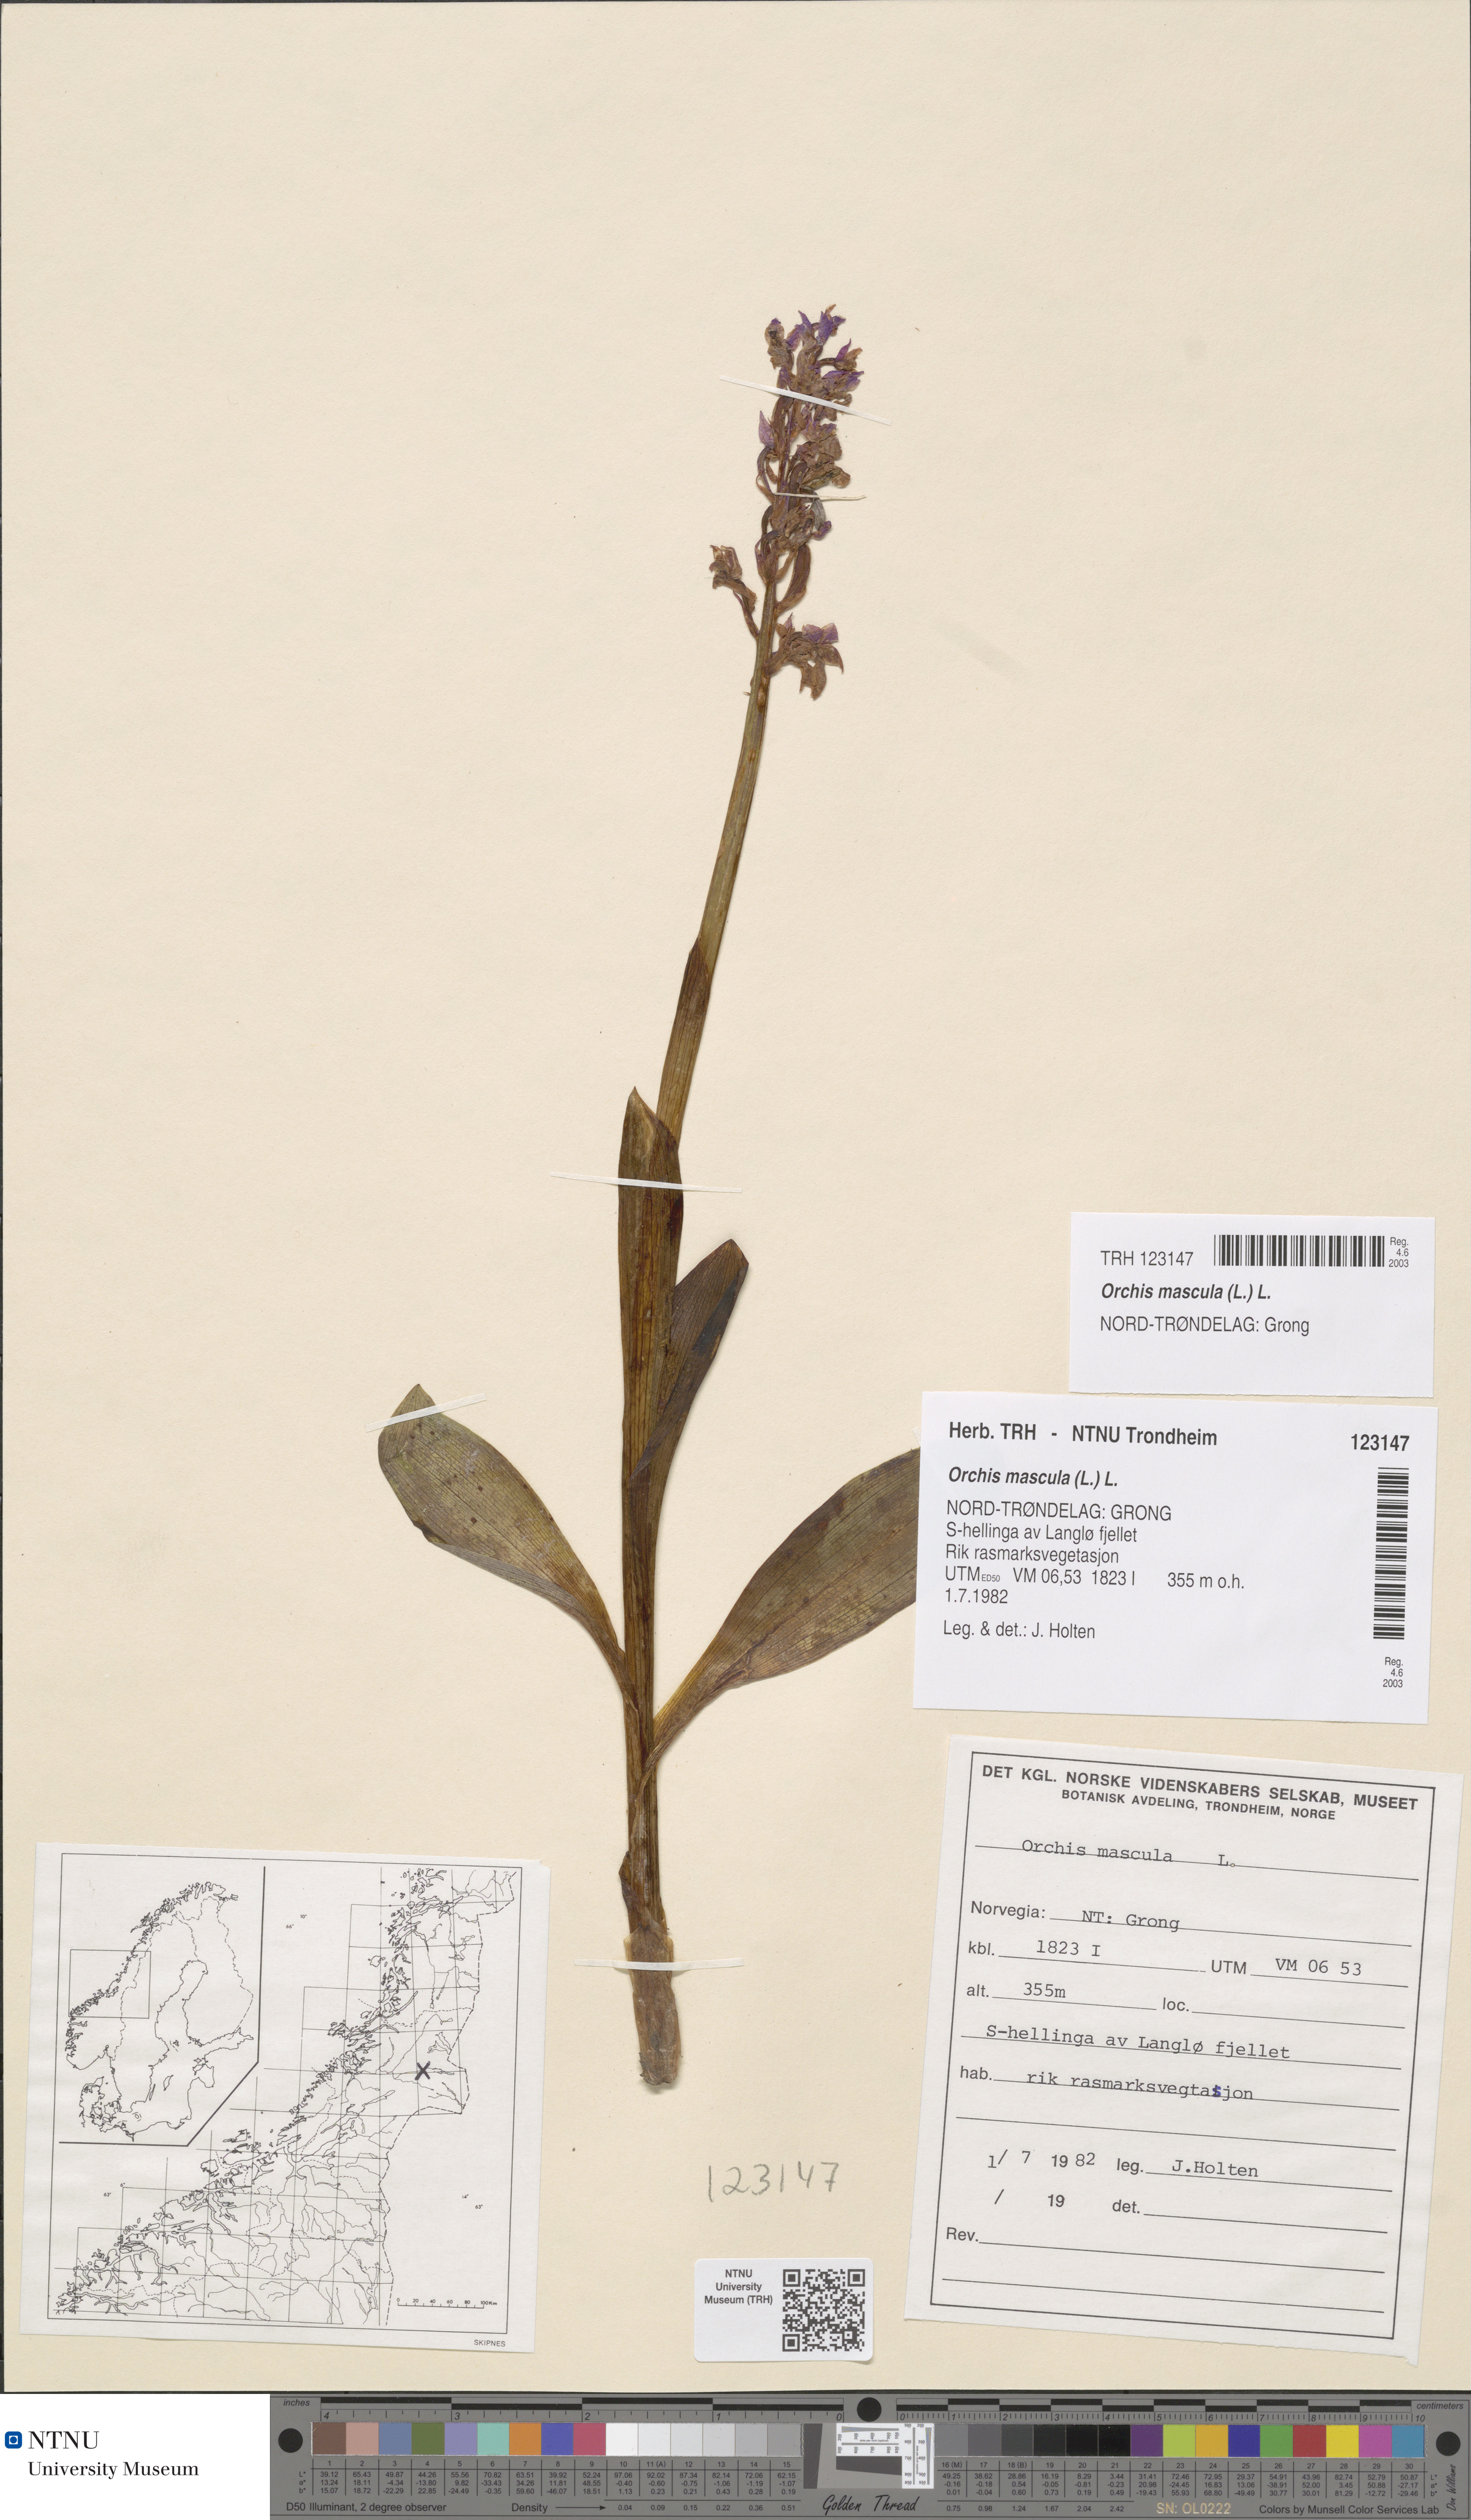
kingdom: Plantae
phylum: Tracheophyta
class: Liliopsida
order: Asparagales
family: Orchidaceae
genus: Orchis
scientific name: Orchis mascula
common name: Early-purple orchid
